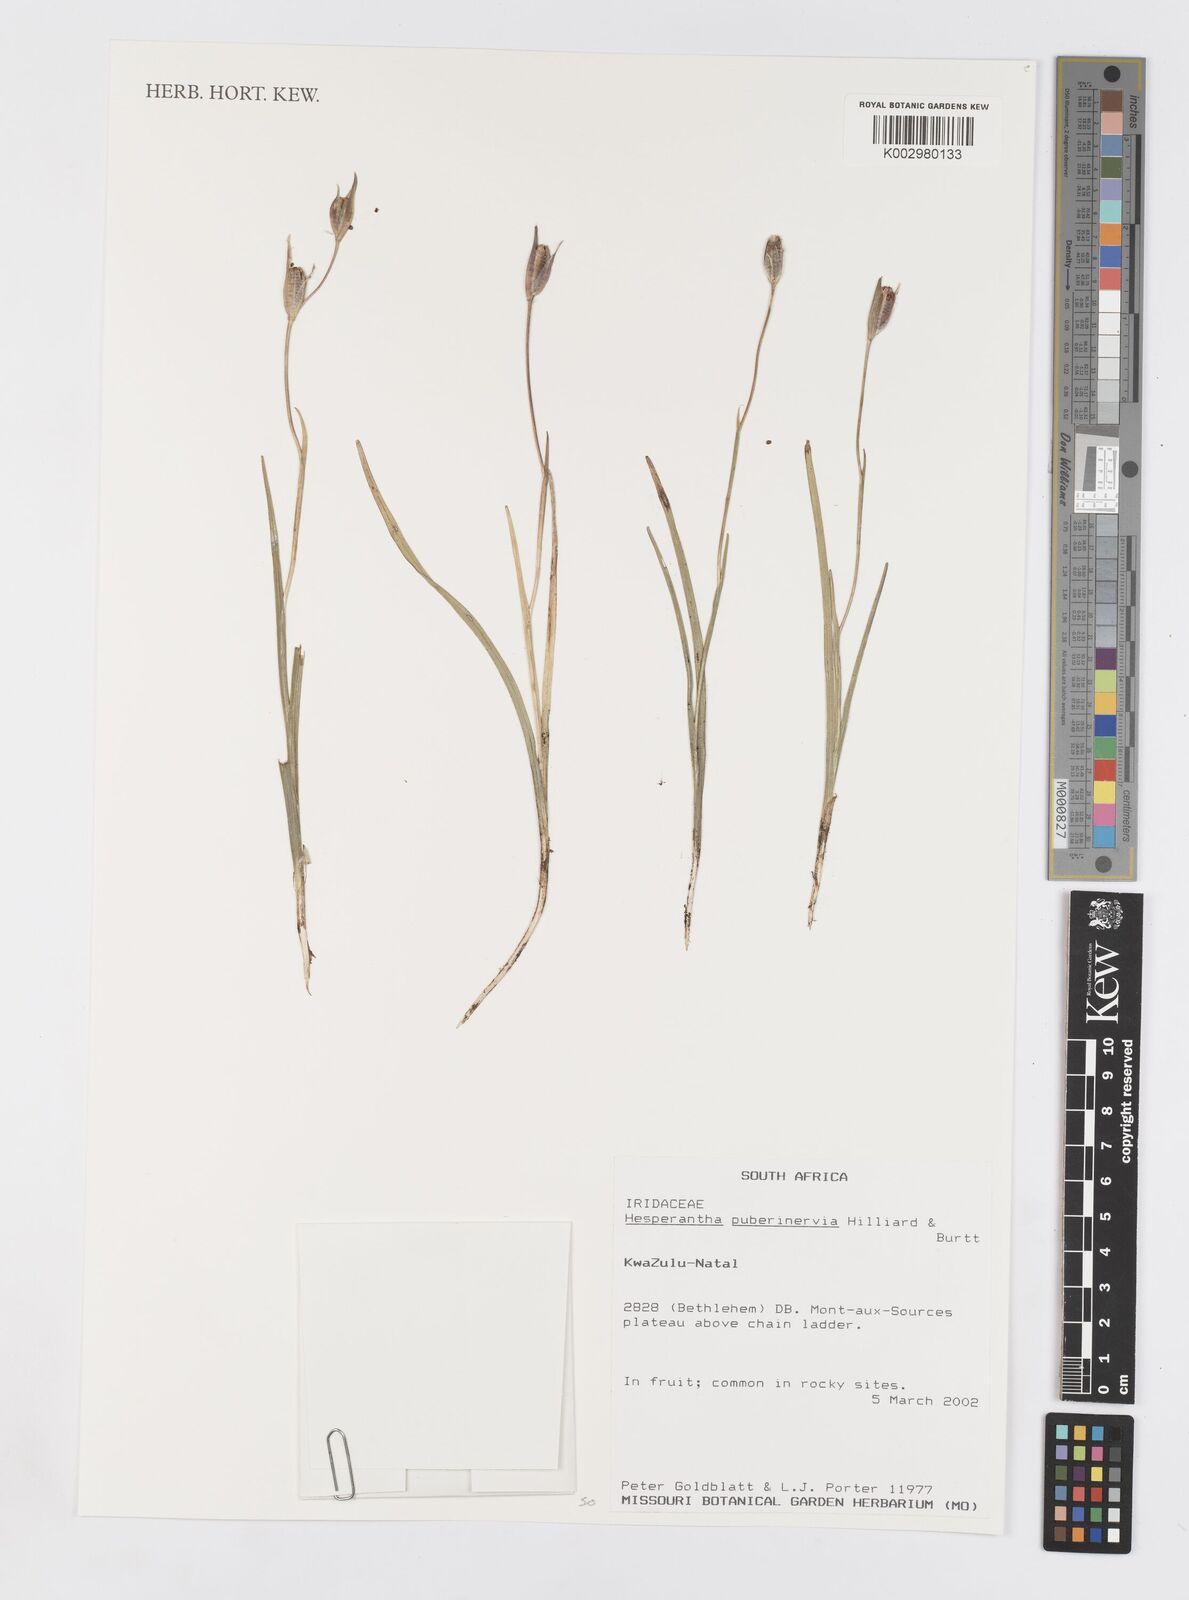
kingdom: Plantae
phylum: Tracheophyta
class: Liliopsida
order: Asparagales
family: Iridaceae
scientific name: Iridaceae
